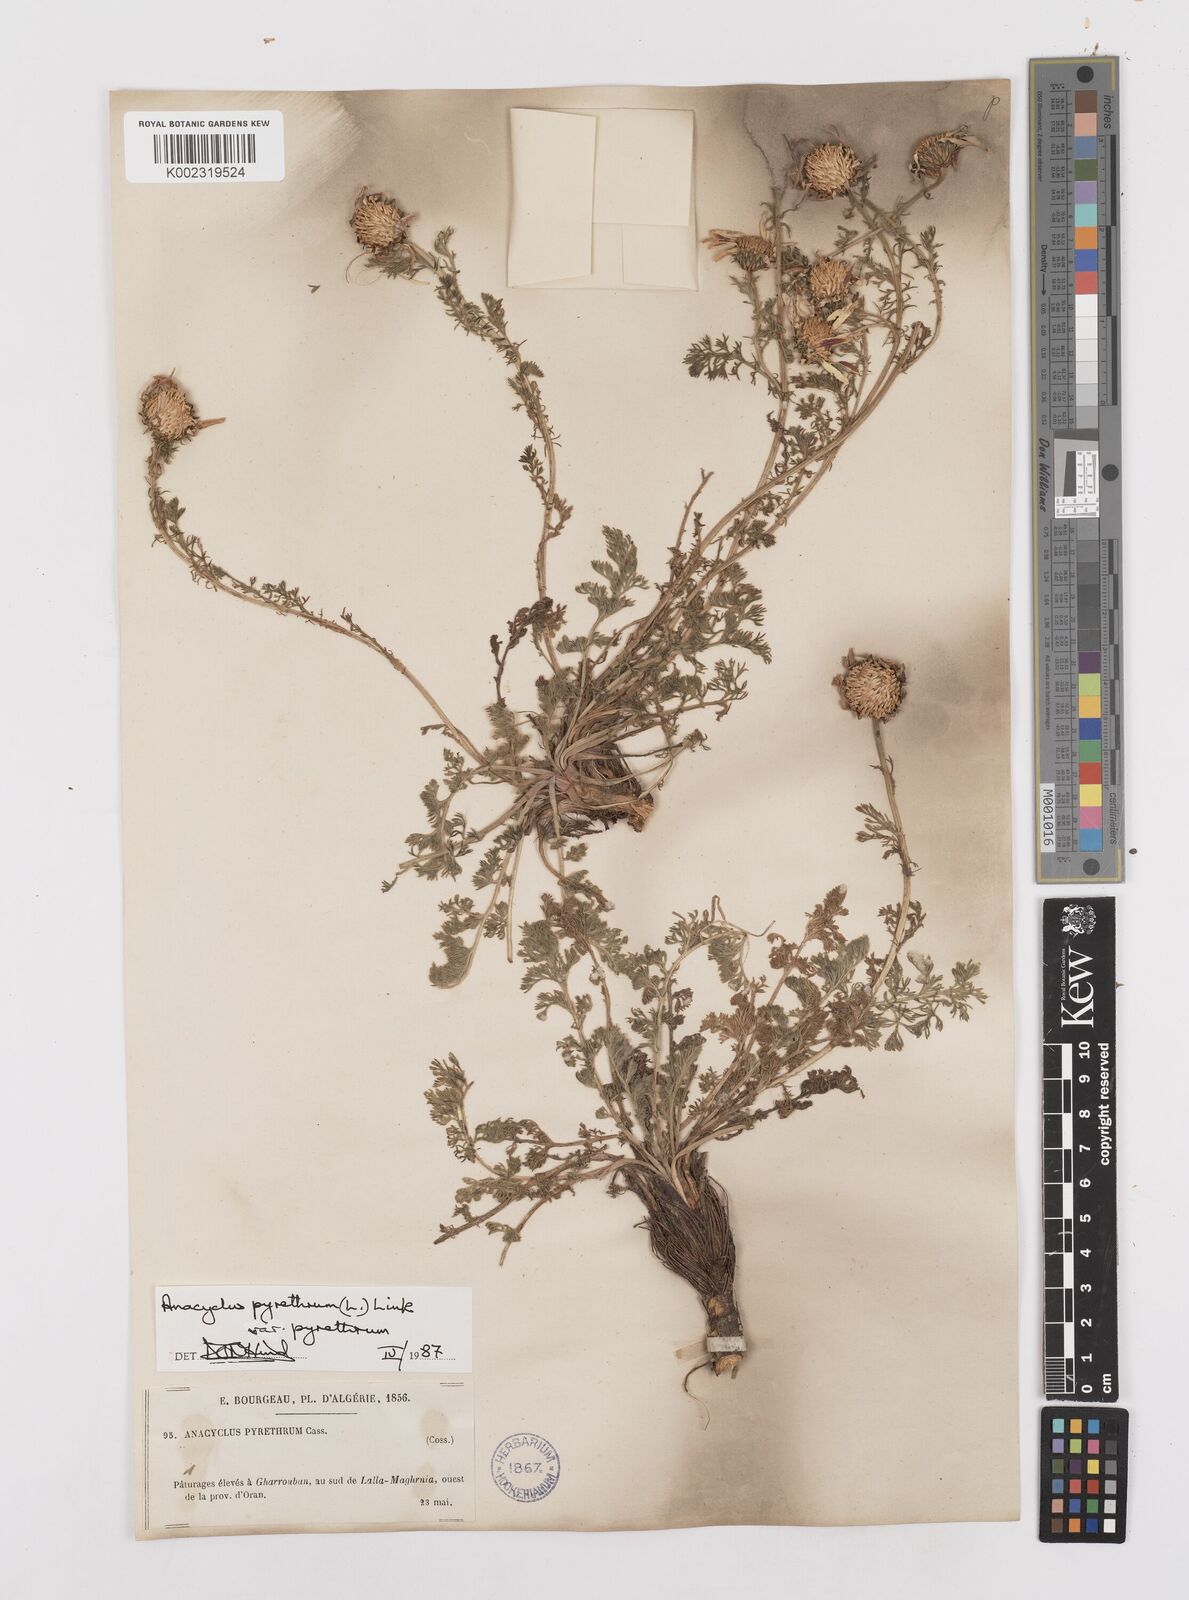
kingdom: Plantae
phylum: Tracheophyta
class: Magnoliopsida
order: Asterales
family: Asteraceae
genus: Anacyclus
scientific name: Anacyclus pyrethrum
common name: Mt. atlas daisy
